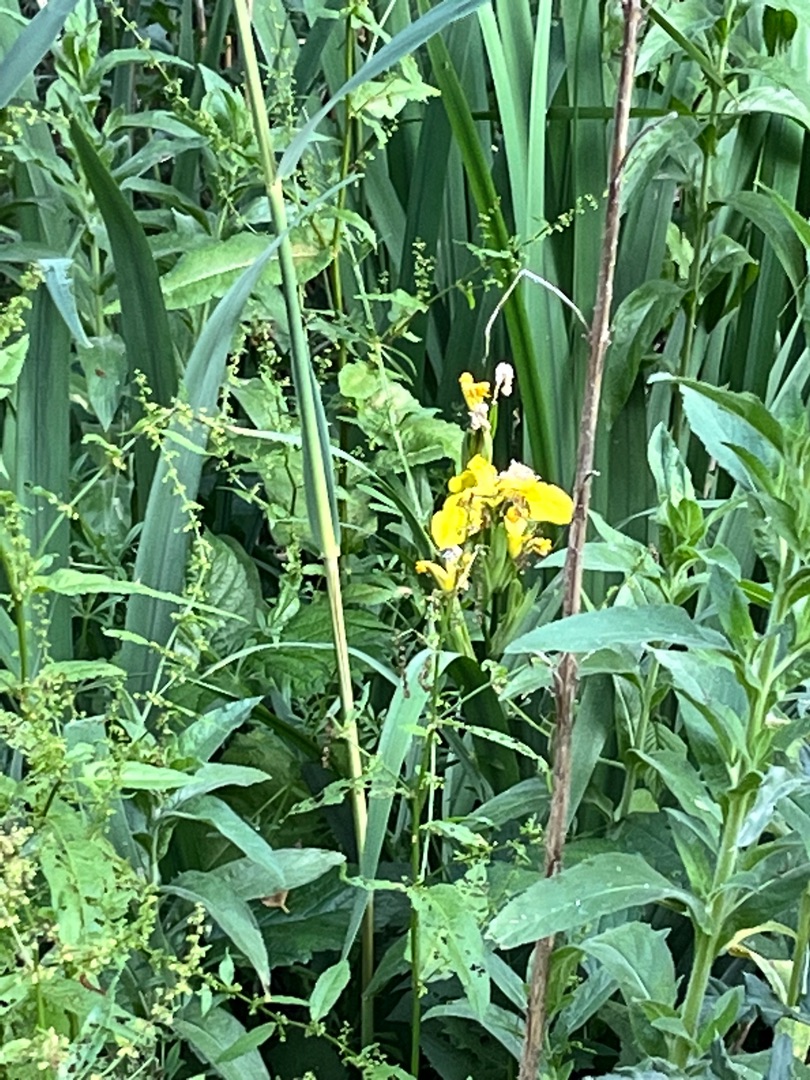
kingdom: Plantae
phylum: Tracheophyta
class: Liliopsida
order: Asparagales
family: Iridaceae
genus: Iris
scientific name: Iris pseudacorus
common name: Gul iris
